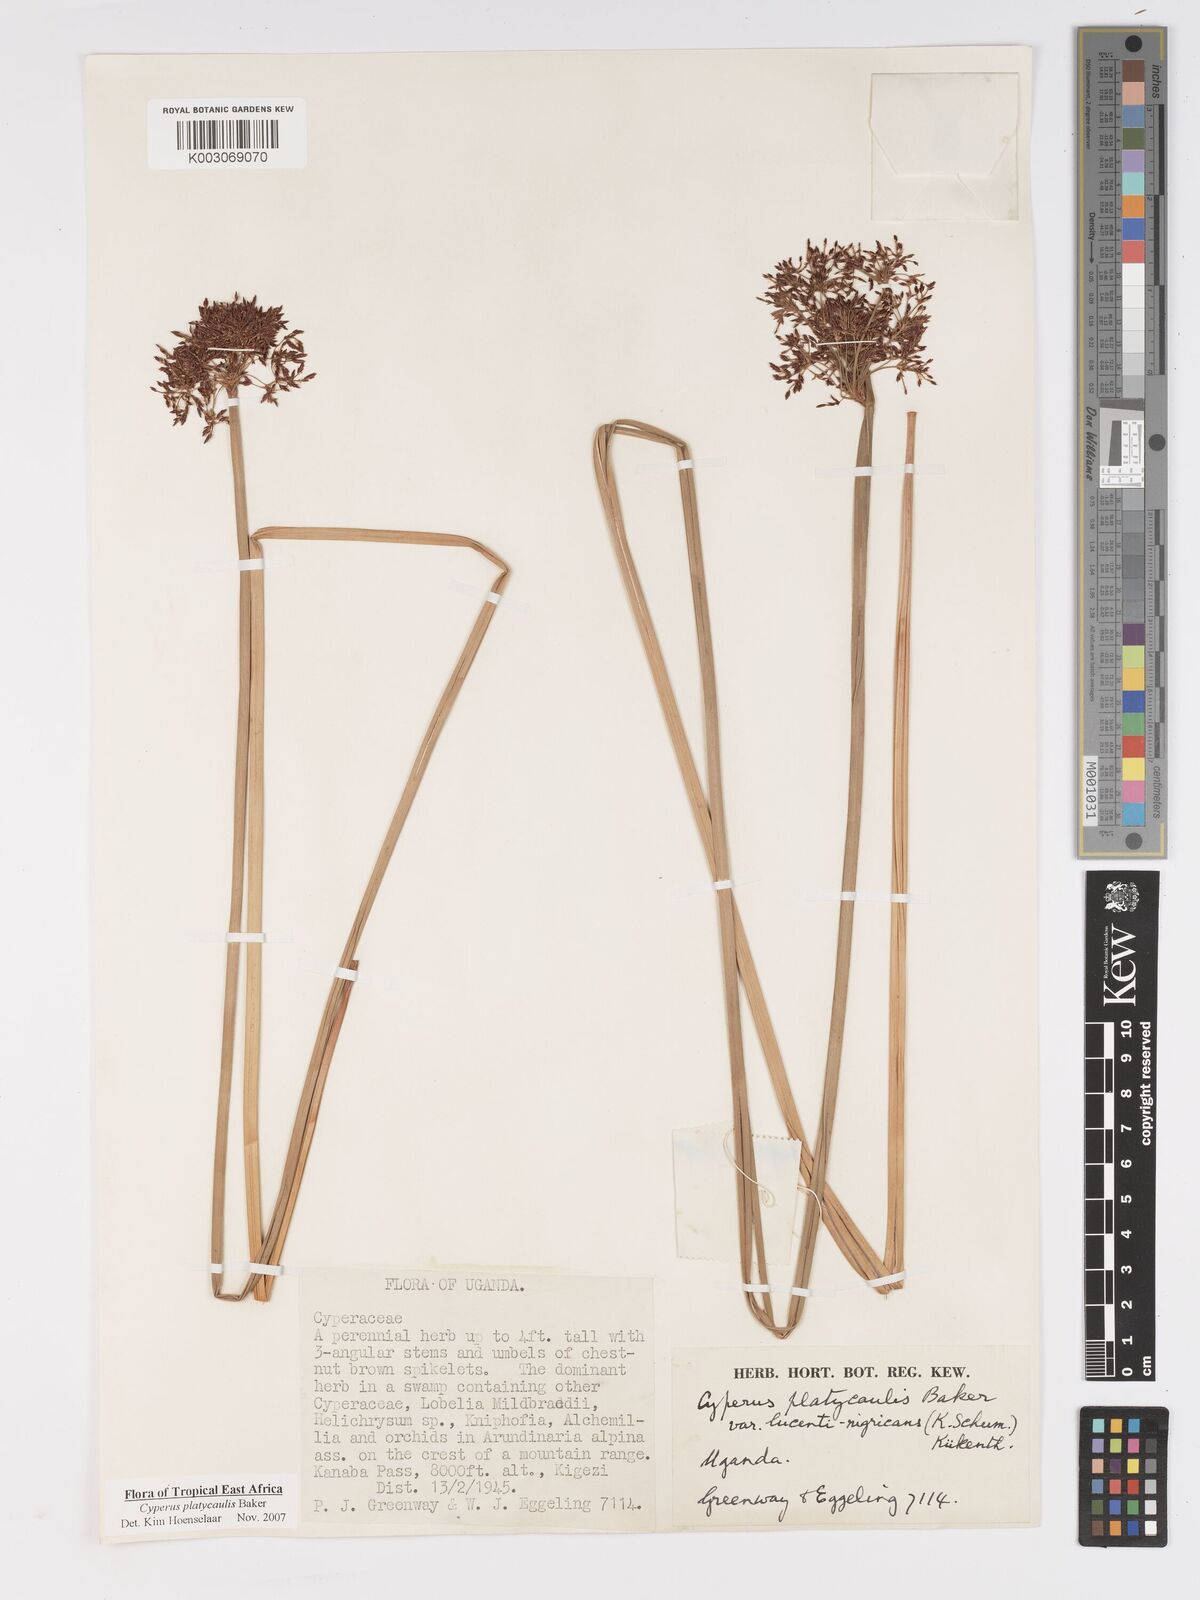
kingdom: Plantae
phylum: Tracheophyta
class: Liliopsida
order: Poales
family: Cyperaceae
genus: Cyperus
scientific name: Cyperus platycaulis
